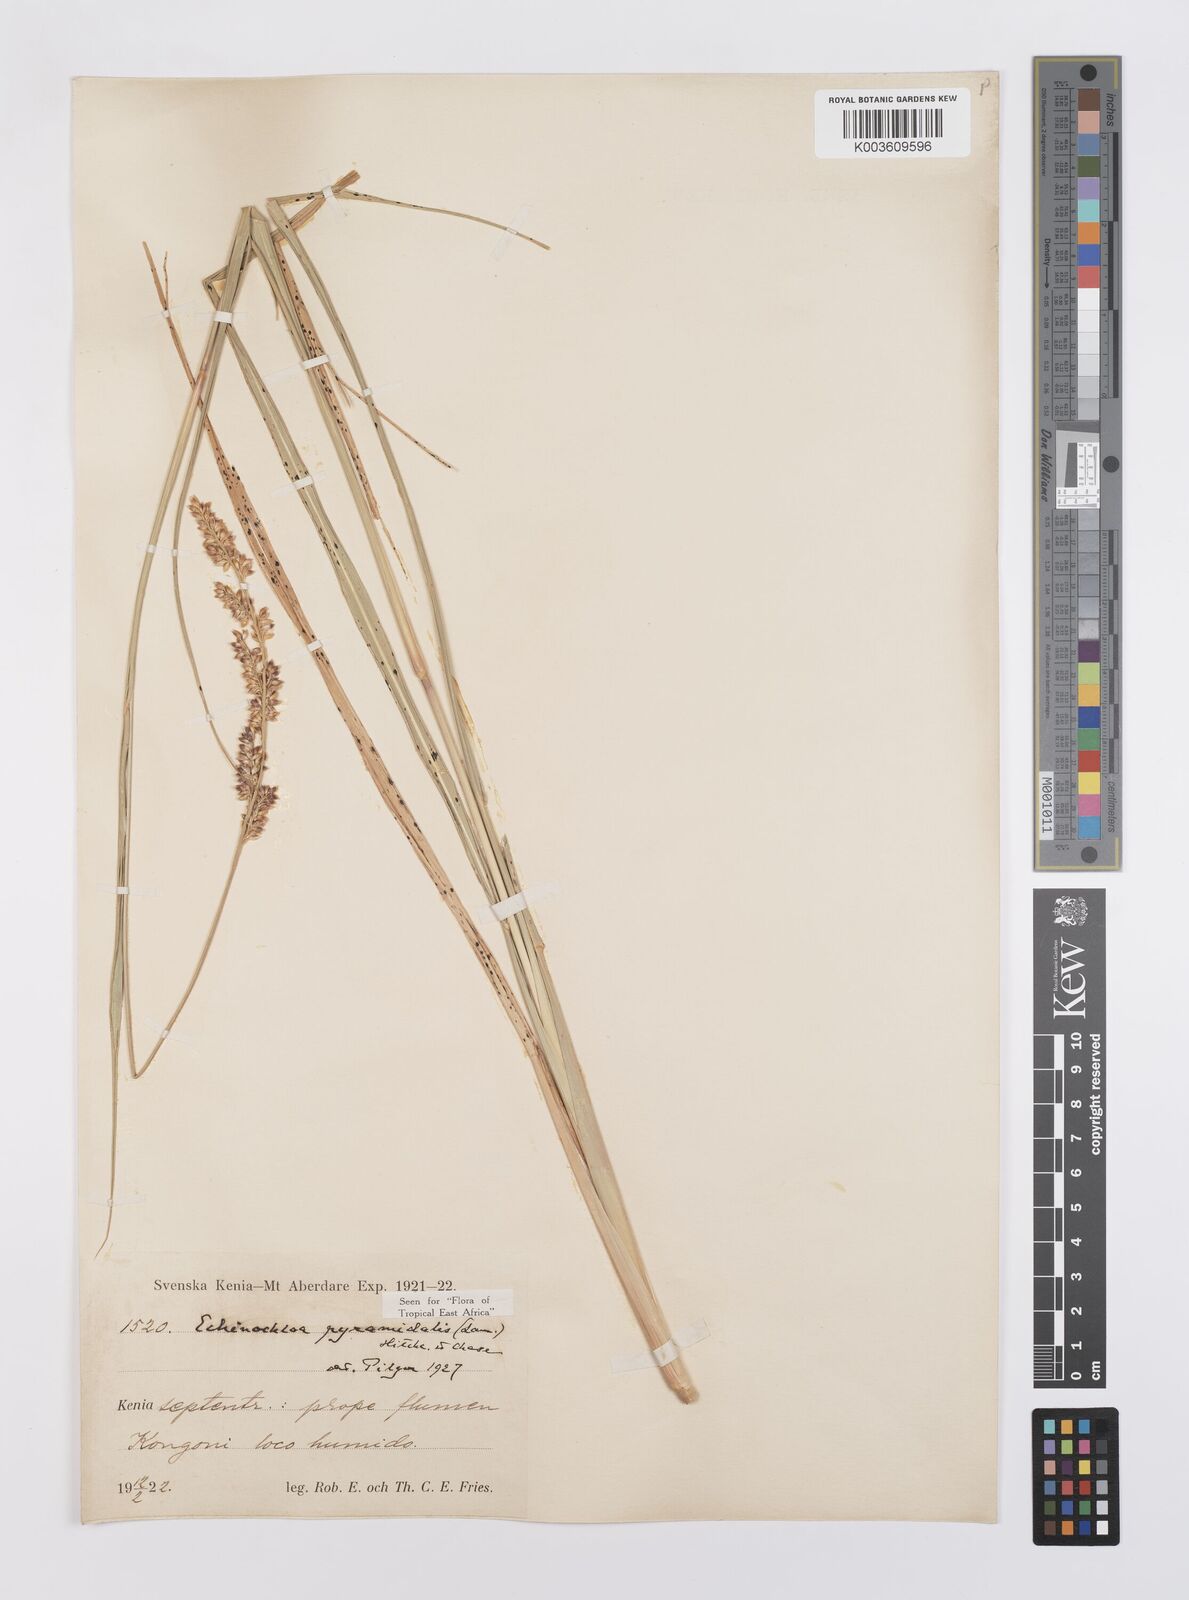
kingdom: Plantae
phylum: Tracheophyta
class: Liliopsida
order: Poales
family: Poaceae
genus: Echinochloa
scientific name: Echinochloa pyramidalis
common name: Antelope grass
